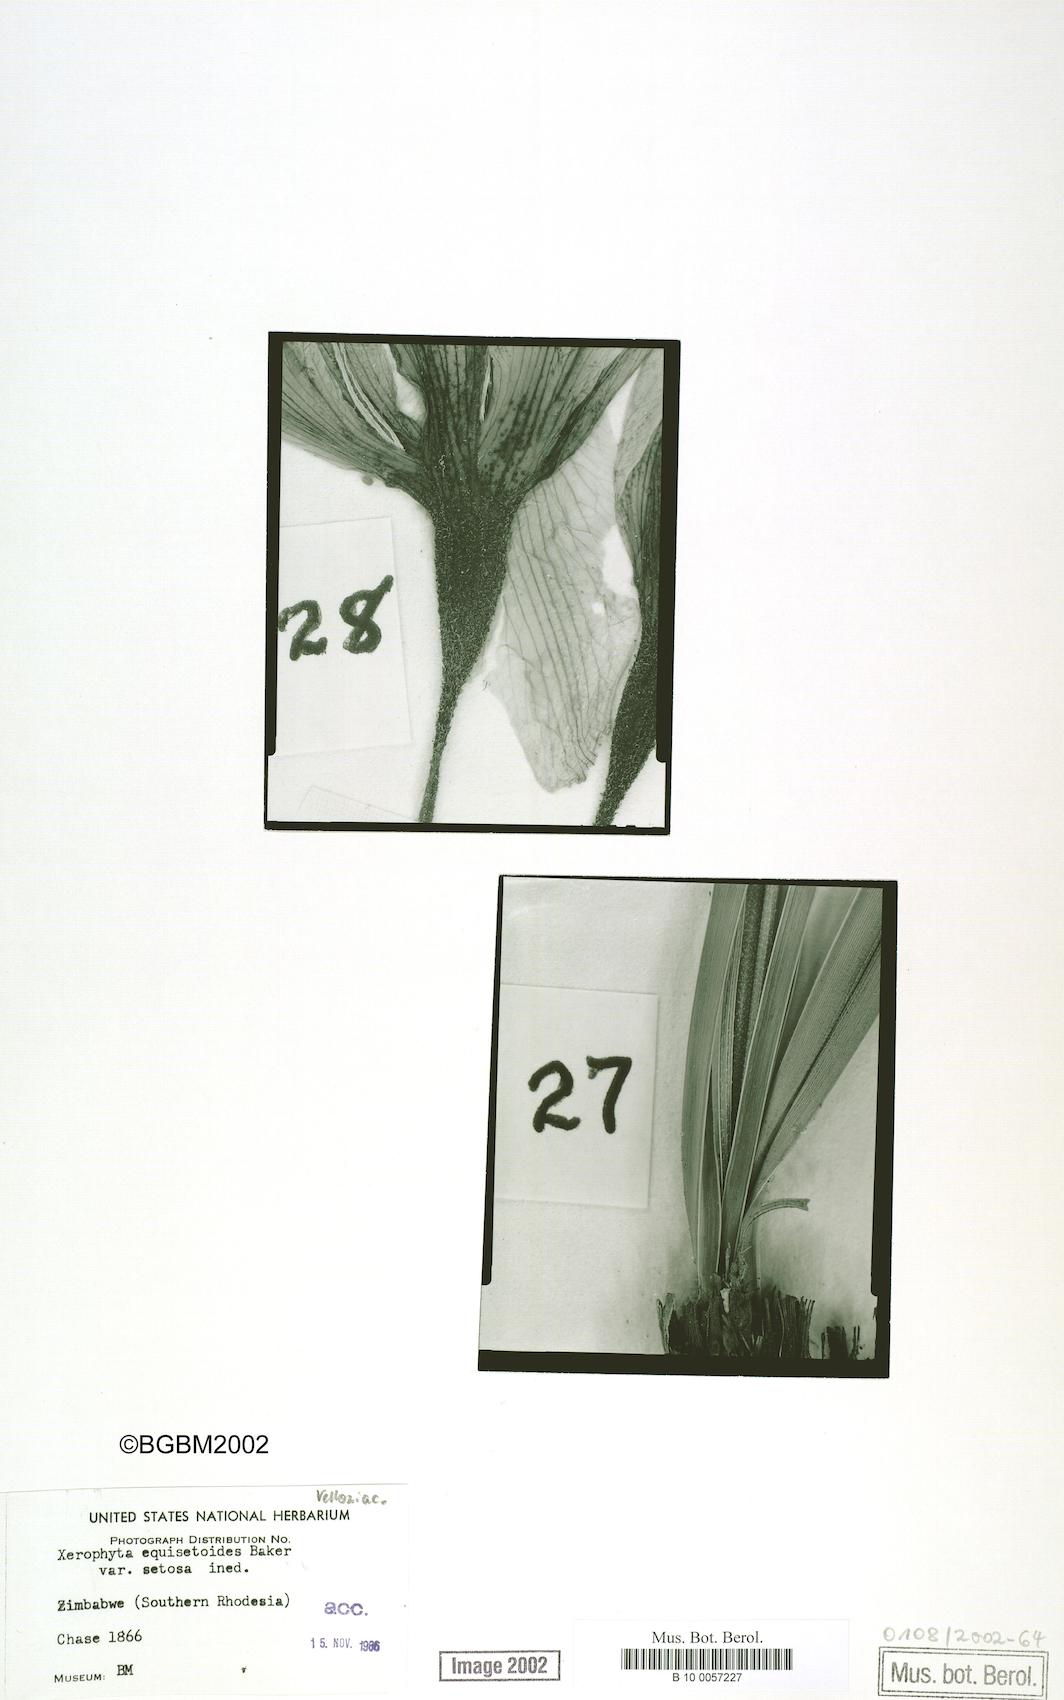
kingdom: Plantae
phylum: Tracheophyta
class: Liliopsida
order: Pandanales
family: Velloziaceae
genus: Xerophyta
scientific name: Xerophyta equisetoides
